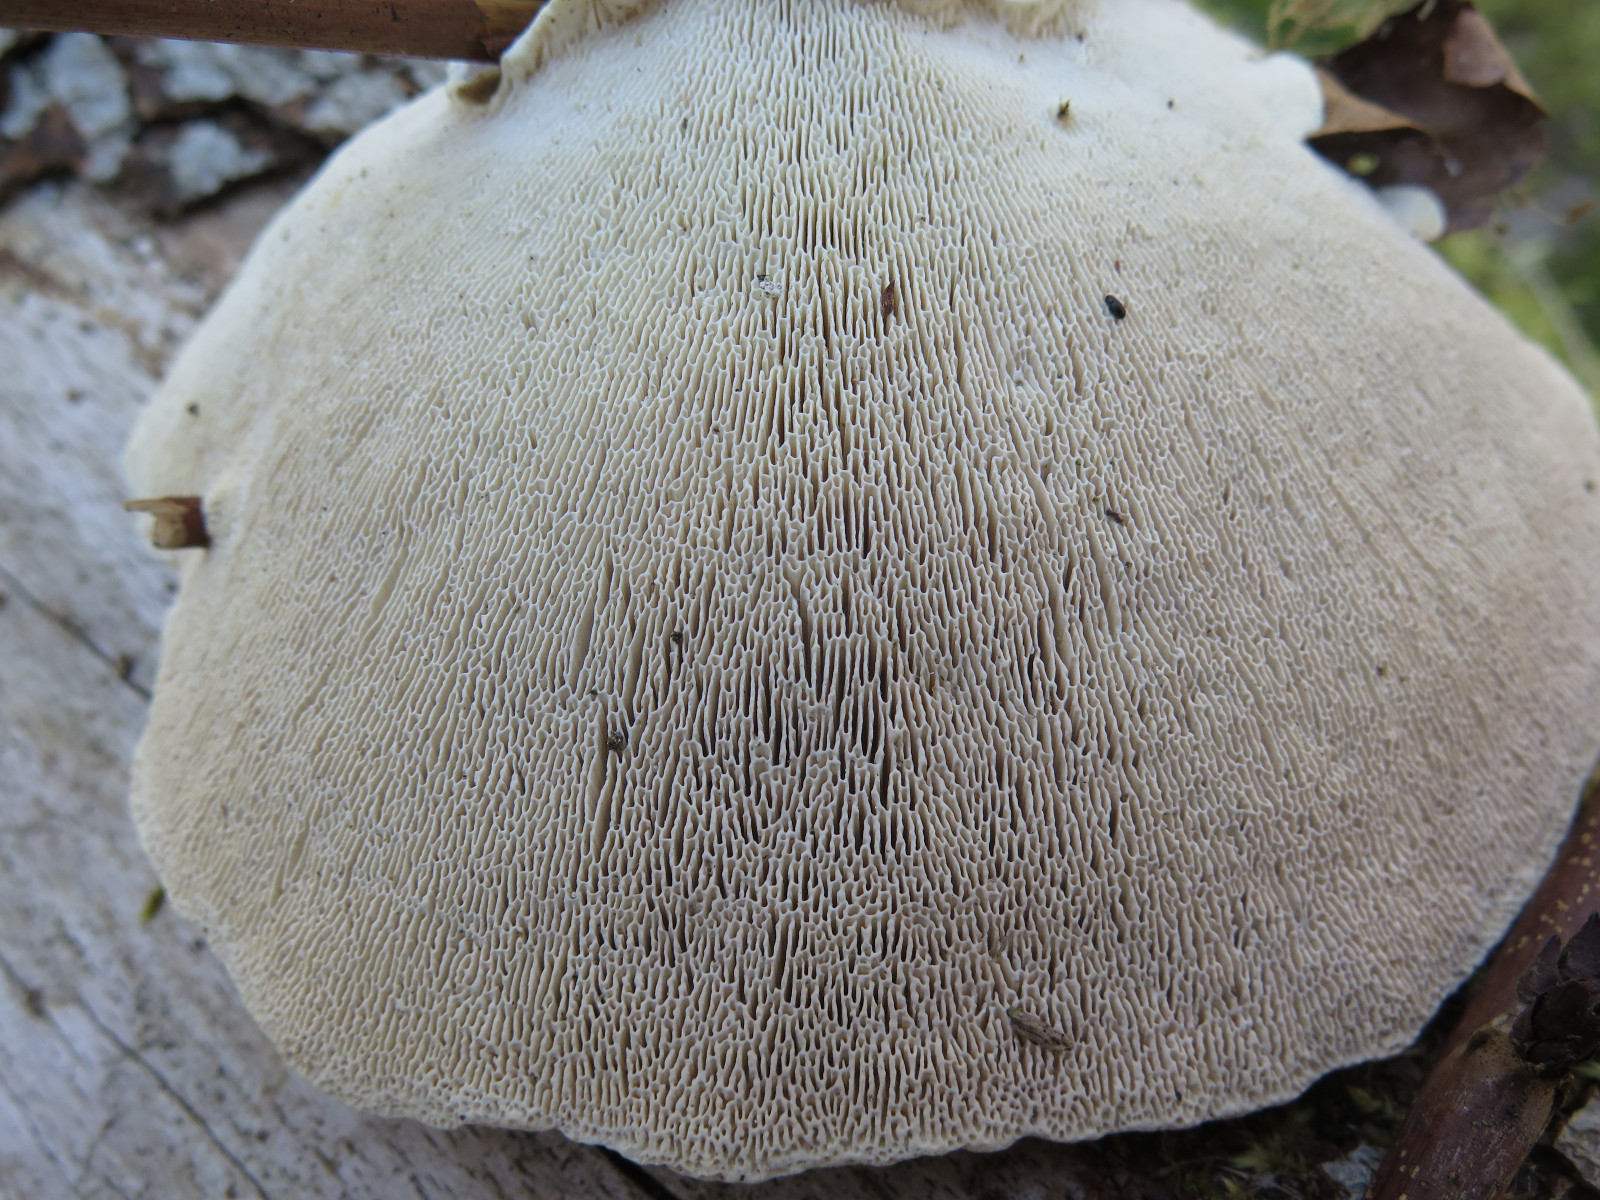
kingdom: Fungi
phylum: Basidiomycota
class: Agaricomycetes
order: Polyporales
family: Polyporaceae
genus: Trametes
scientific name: Trametes gibbosa
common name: puklet læderporesvamp
